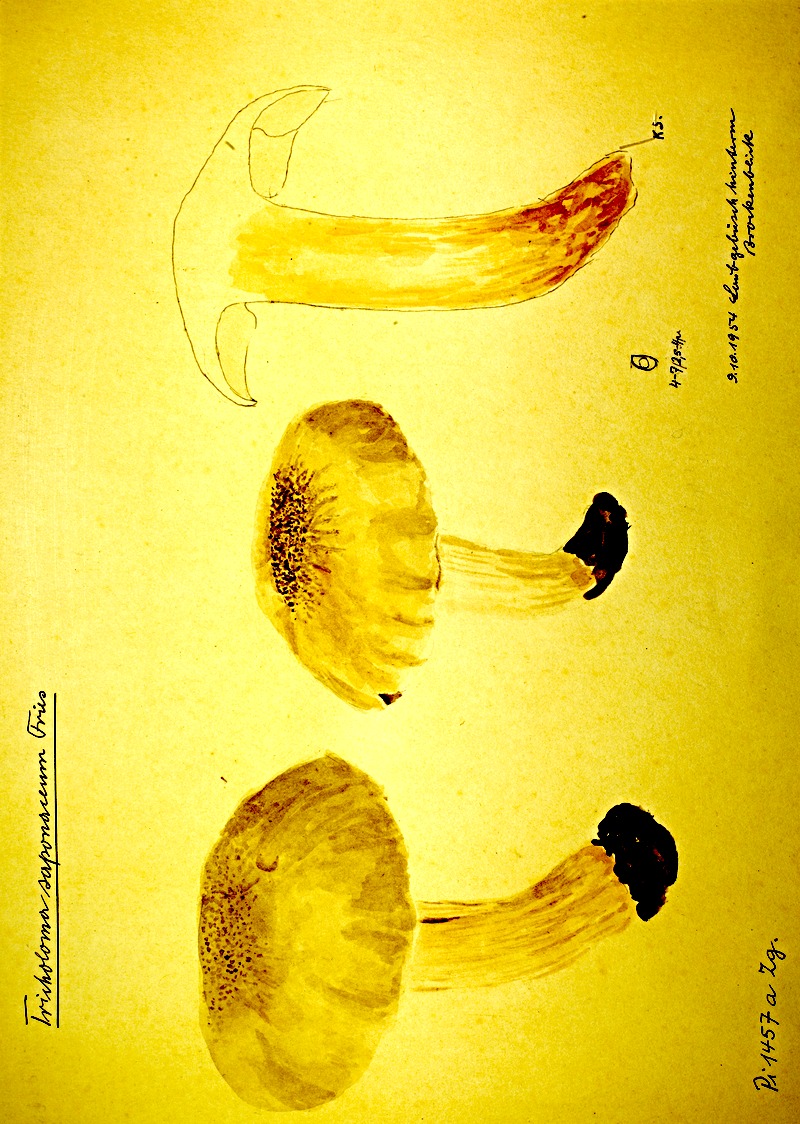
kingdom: Fungi
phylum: Basidiomycota
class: Agaricomycetes
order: Agaricales
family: Tricholomataceae
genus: Tricholoma
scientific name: Tricholoma saponaceum
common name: Soapy trich
